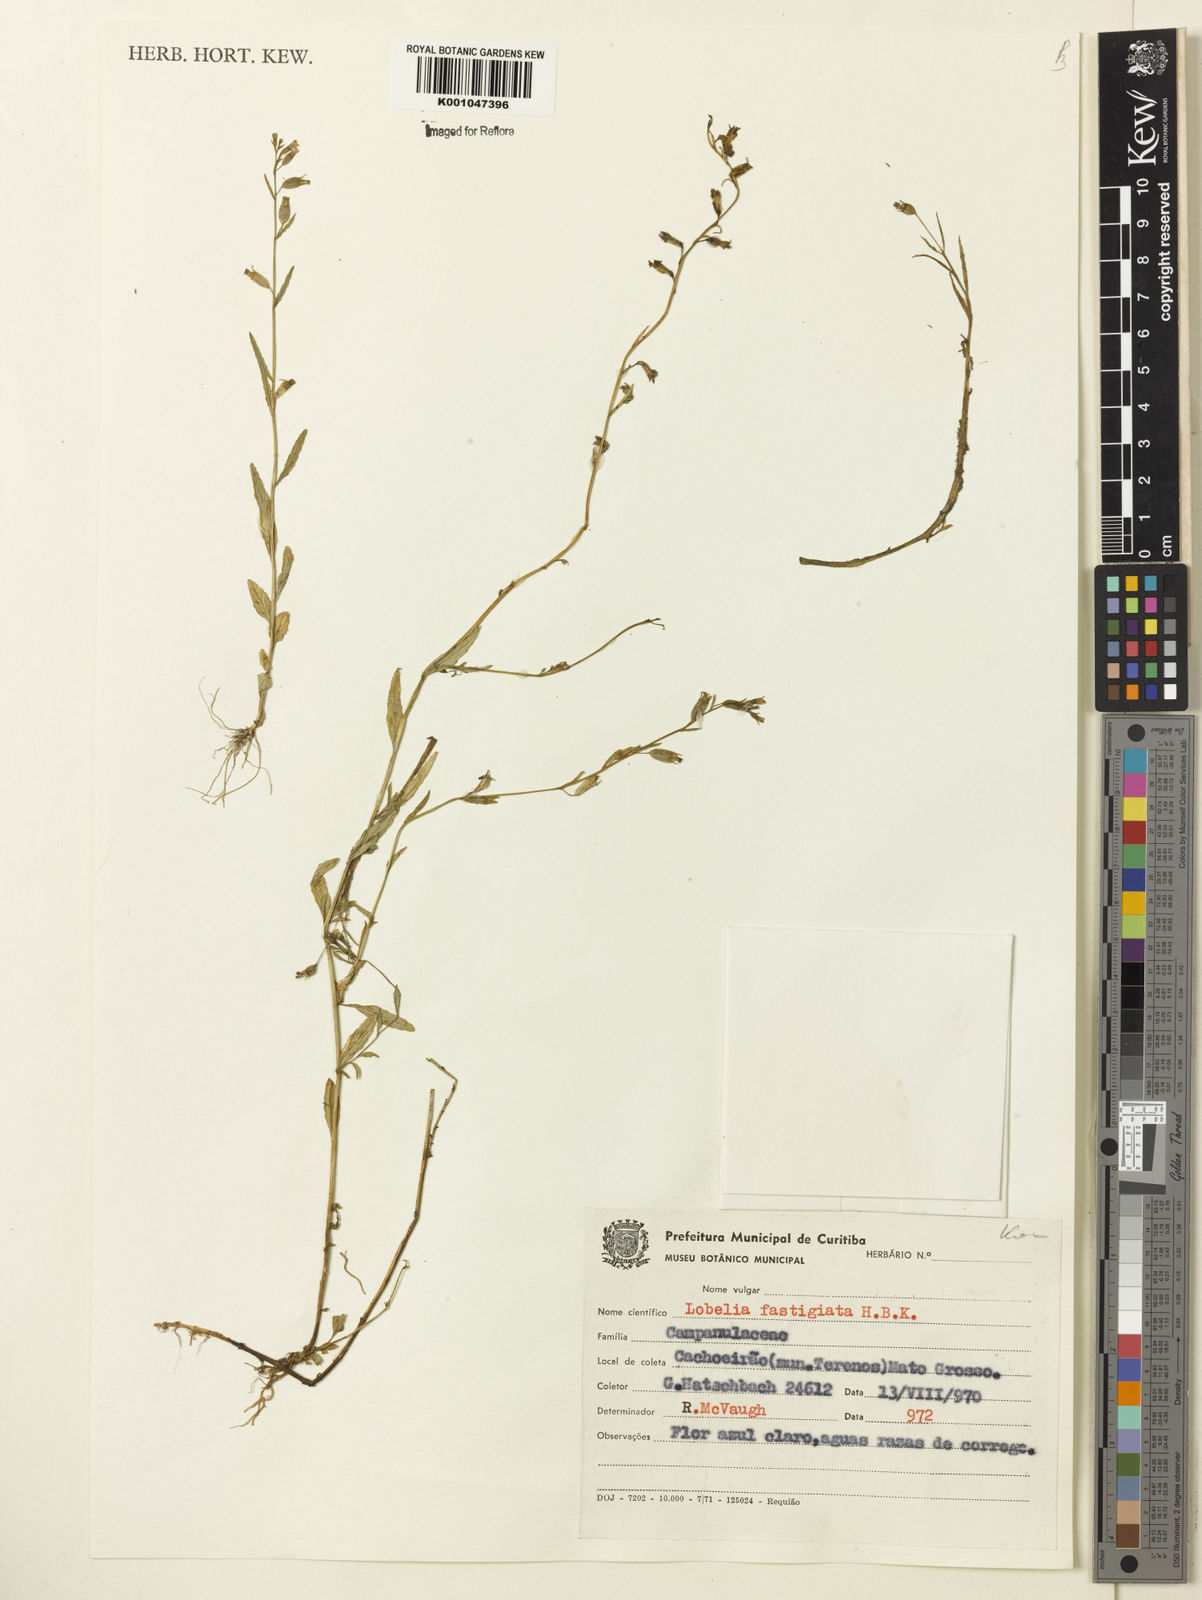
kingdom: Plantae
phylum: Tracheophyta
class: Magnoliopsida
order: Asterales
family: Campanulaceae
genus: Lobelia
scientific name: Lobelia fastigiata
